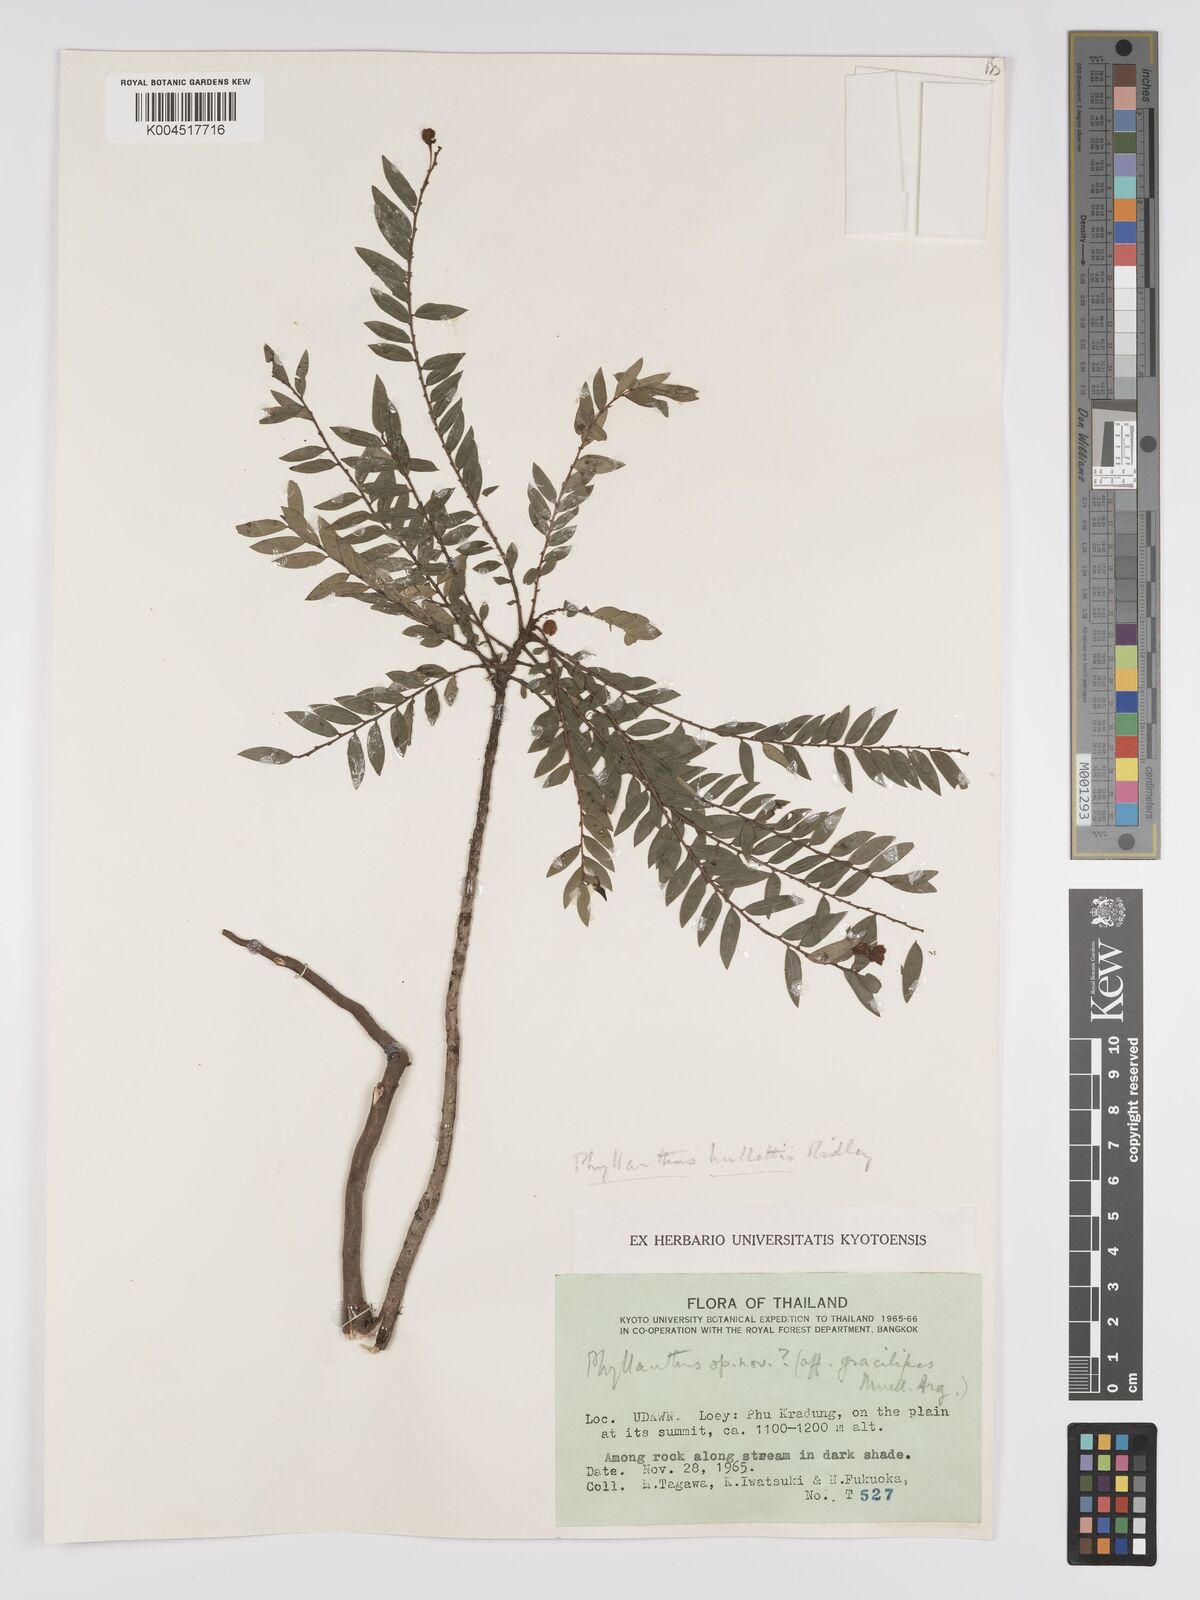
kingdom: Plantae
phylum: Tracheophyta
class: Magnoliopsida
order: Malpighiales
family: Phyllanthaceae
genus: Phyllanthus
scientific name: Phyllanthus gracilipes
